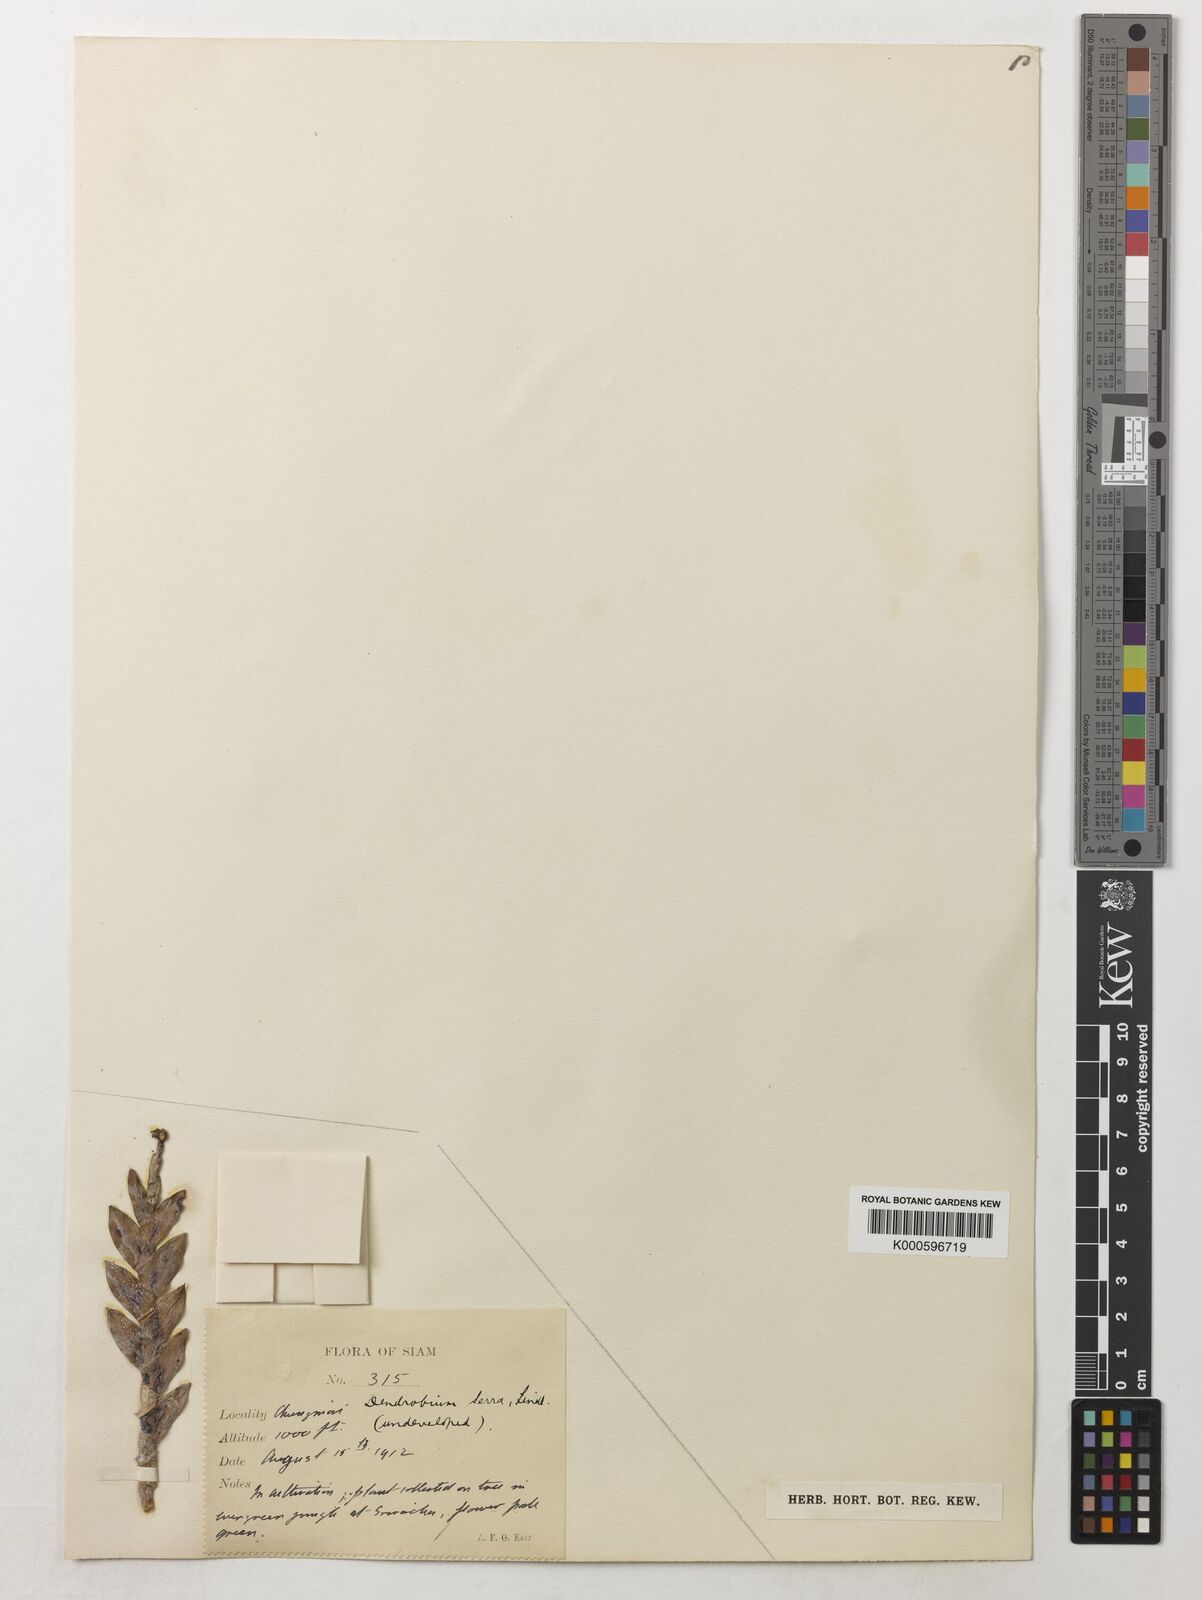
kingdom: Plantae
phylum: Tracheophyta
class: Liliopsida
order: Asparagales
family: Orchidaceae
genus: Dendrobium
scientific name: Dendrobium aloifolium
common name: Aloe-like dendrobium
